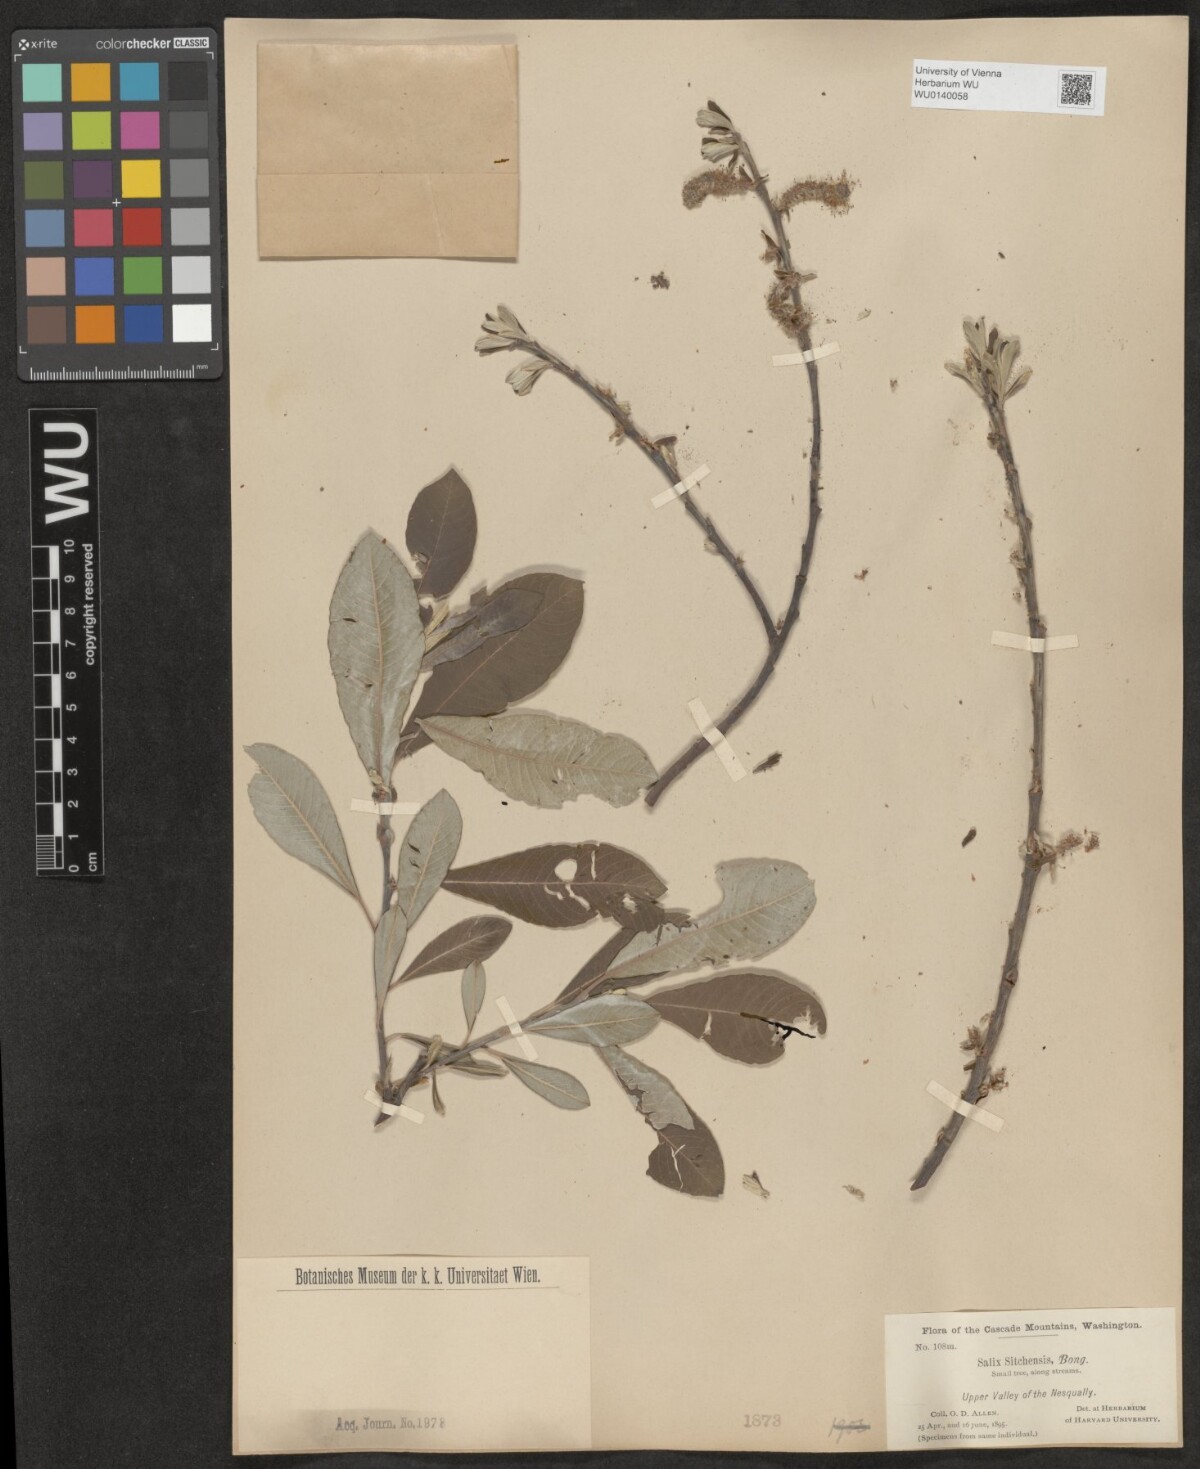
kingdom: Plantae
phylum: Tracheophyta
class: Magnoliopsida
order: Malpighiales
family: Salicaceae
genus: Salix
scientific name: Salix sitchensis
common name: Sitka willow
